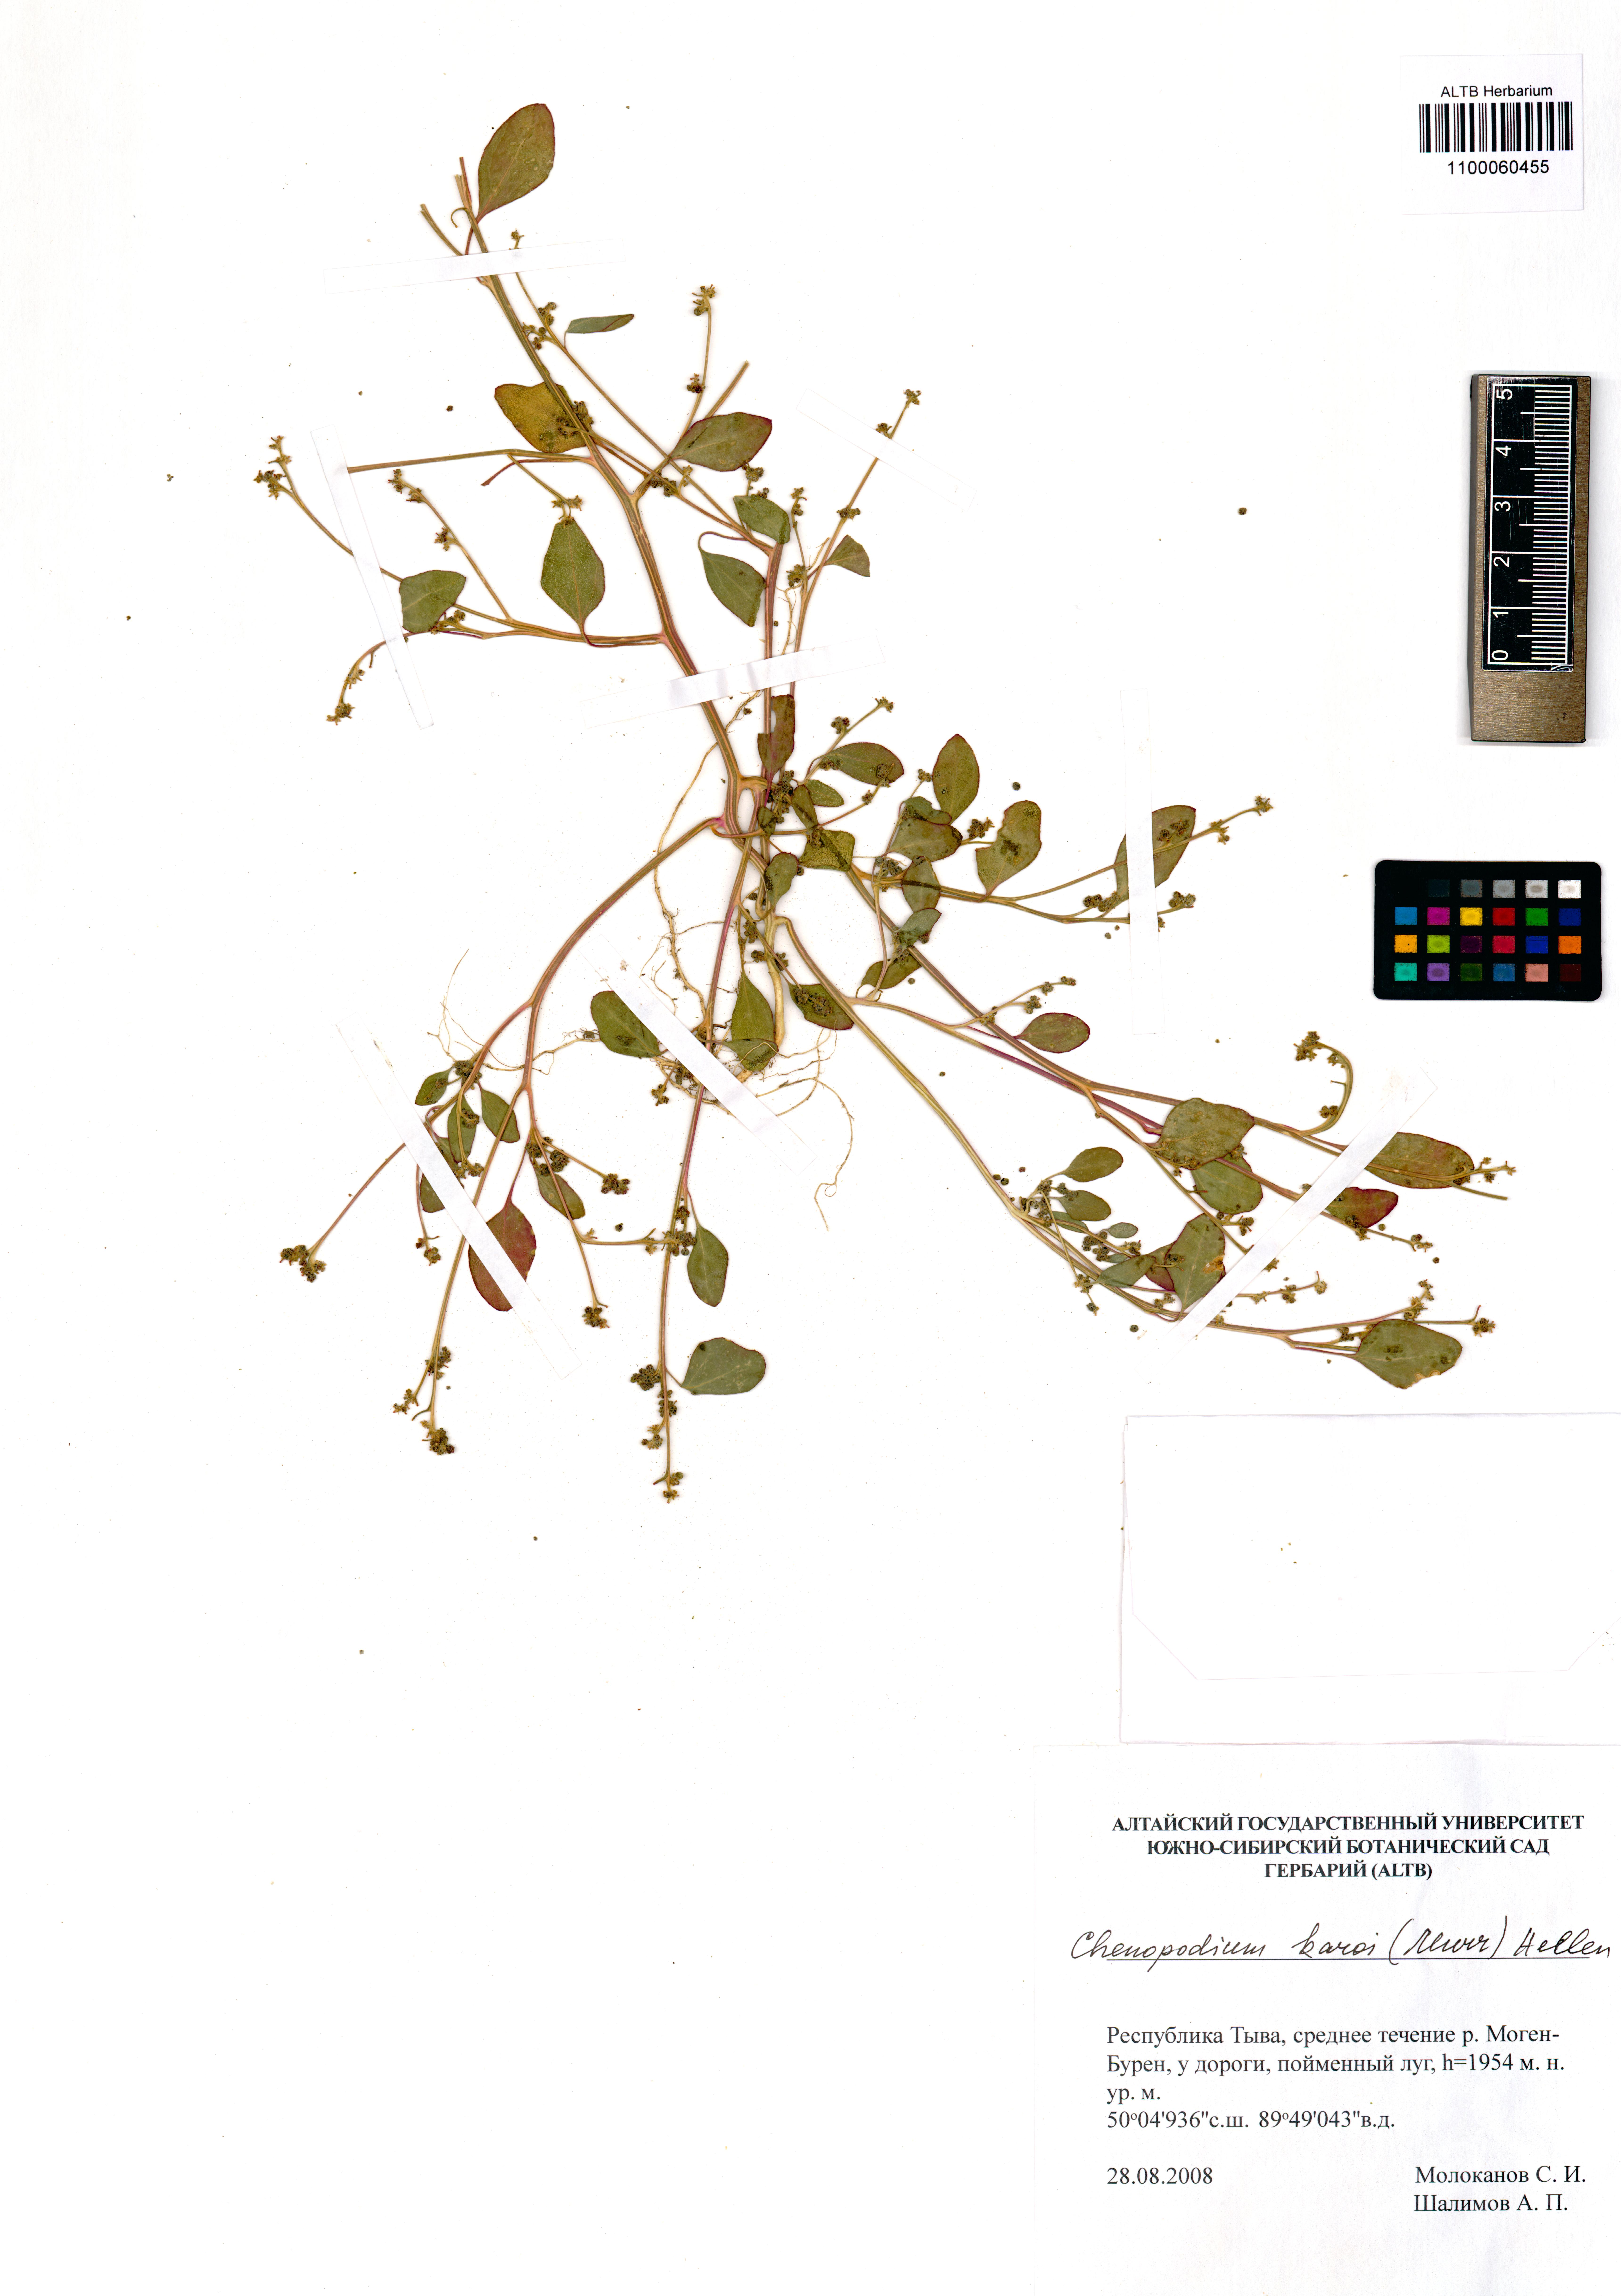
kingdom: Plantae
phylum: Tracheophyta
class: Magnoliopsida
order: Caryophyllales
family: Amaranthaceae
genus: Chenopodium
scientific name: Chenopodium karoi
